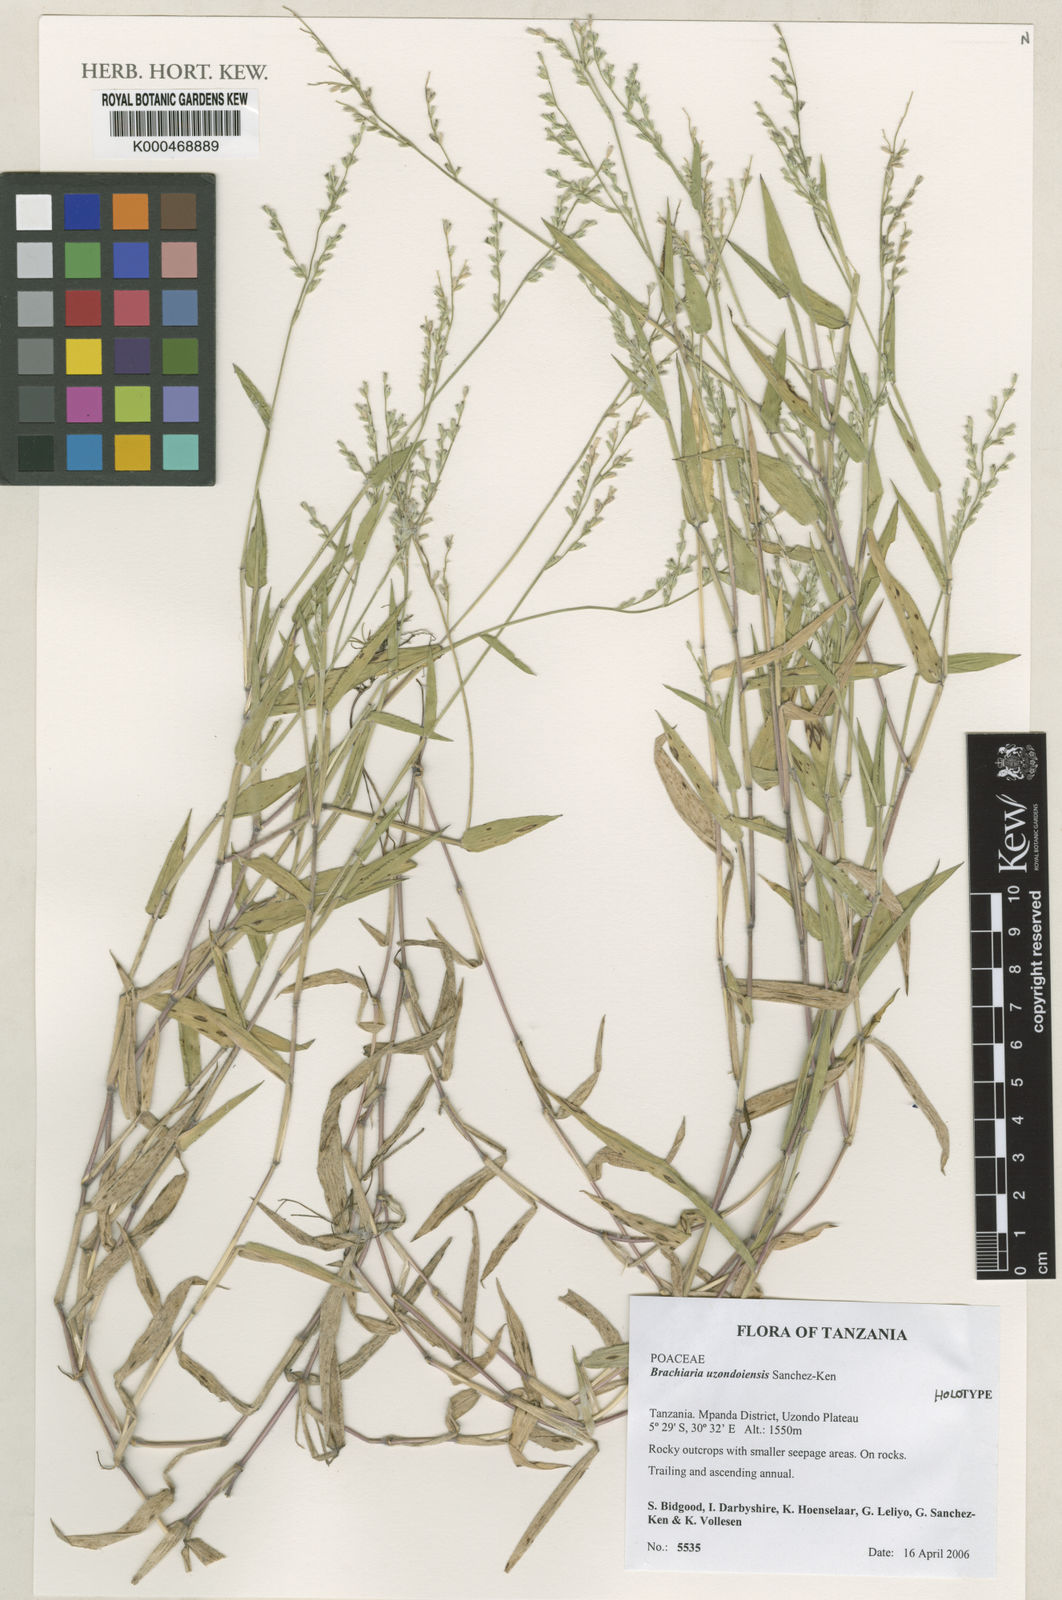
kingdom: Plantae
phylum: Tracheophyta
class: Liliopsida
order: Poales
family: Poaceae
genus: Brachiaria
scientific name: Brachiaria
